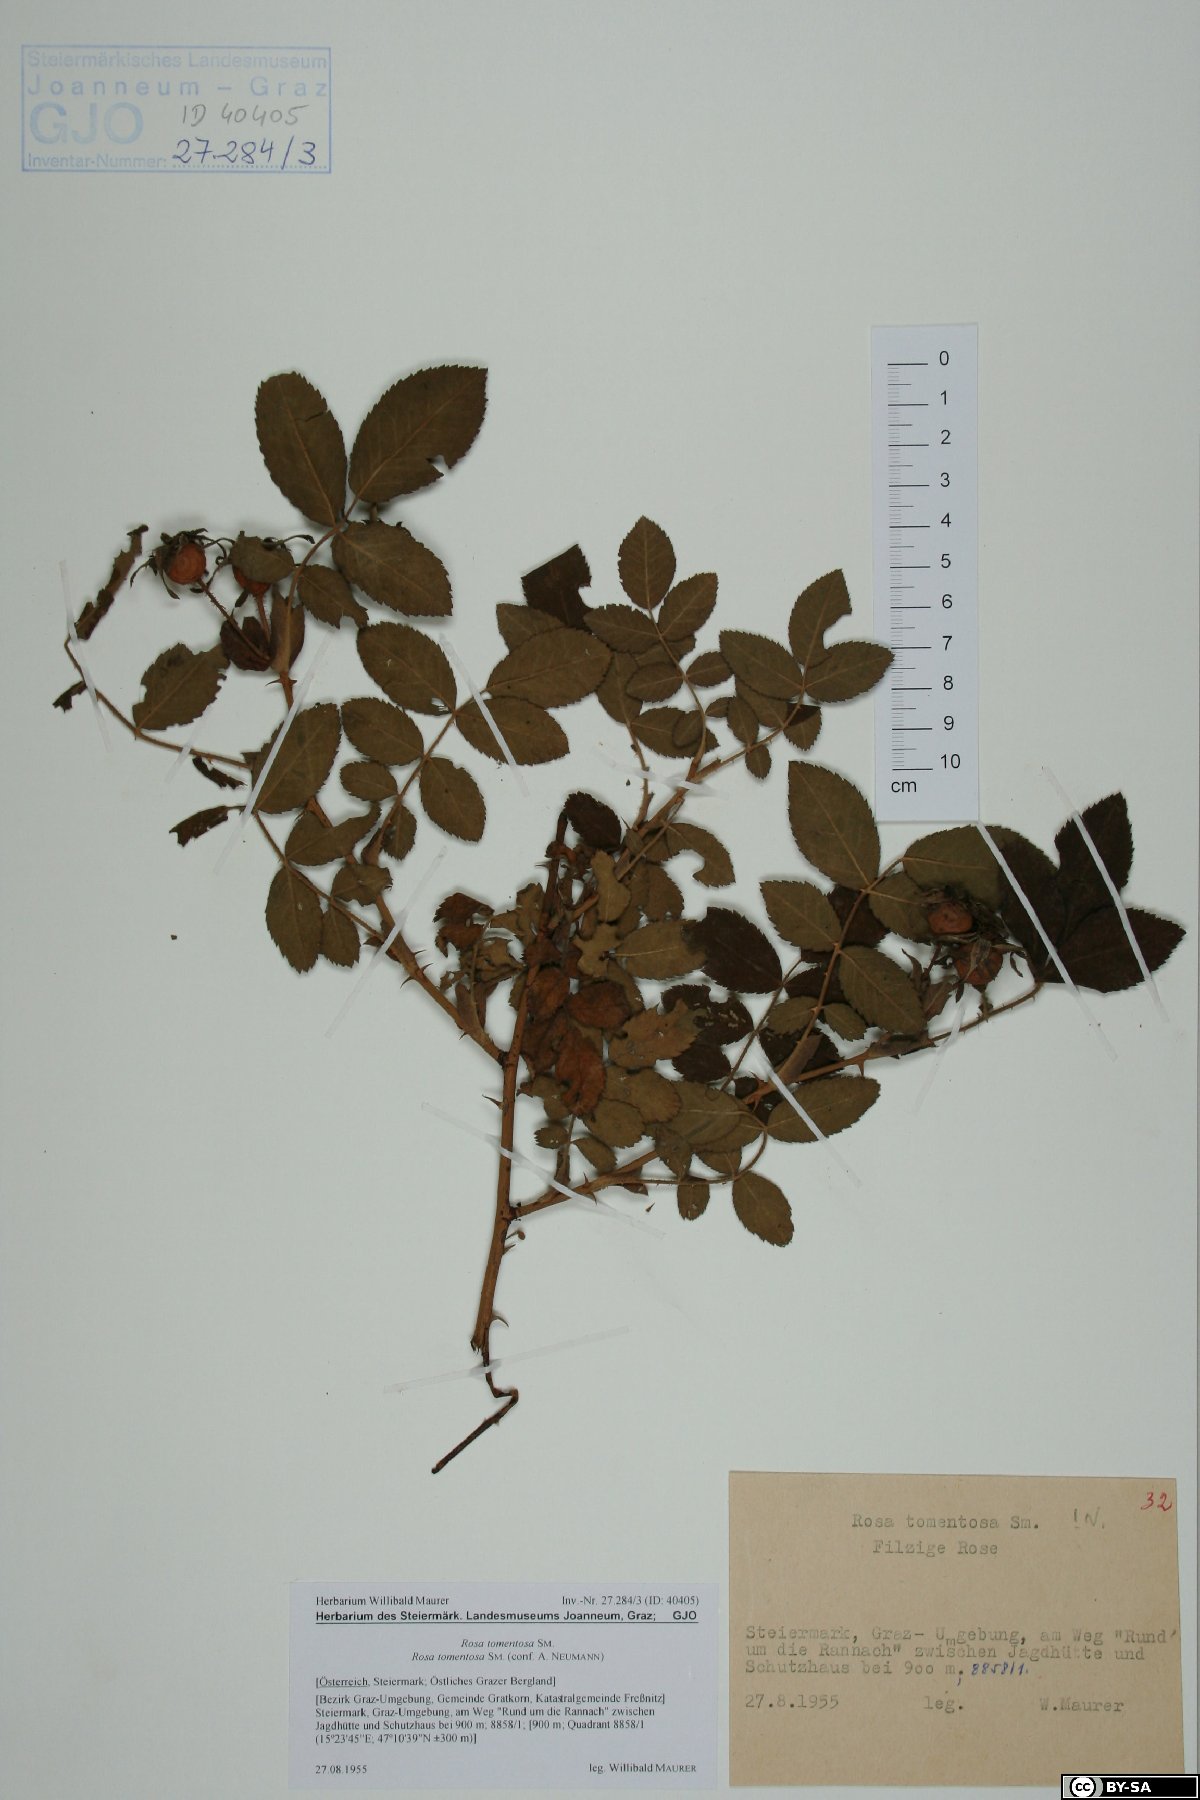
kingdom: Plantae
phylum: Tracheophyta
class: Magnoliopsida
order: Rosales
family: Rosaceae
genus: Rosa
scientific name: Rosa tomentosa
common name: Downy rose
